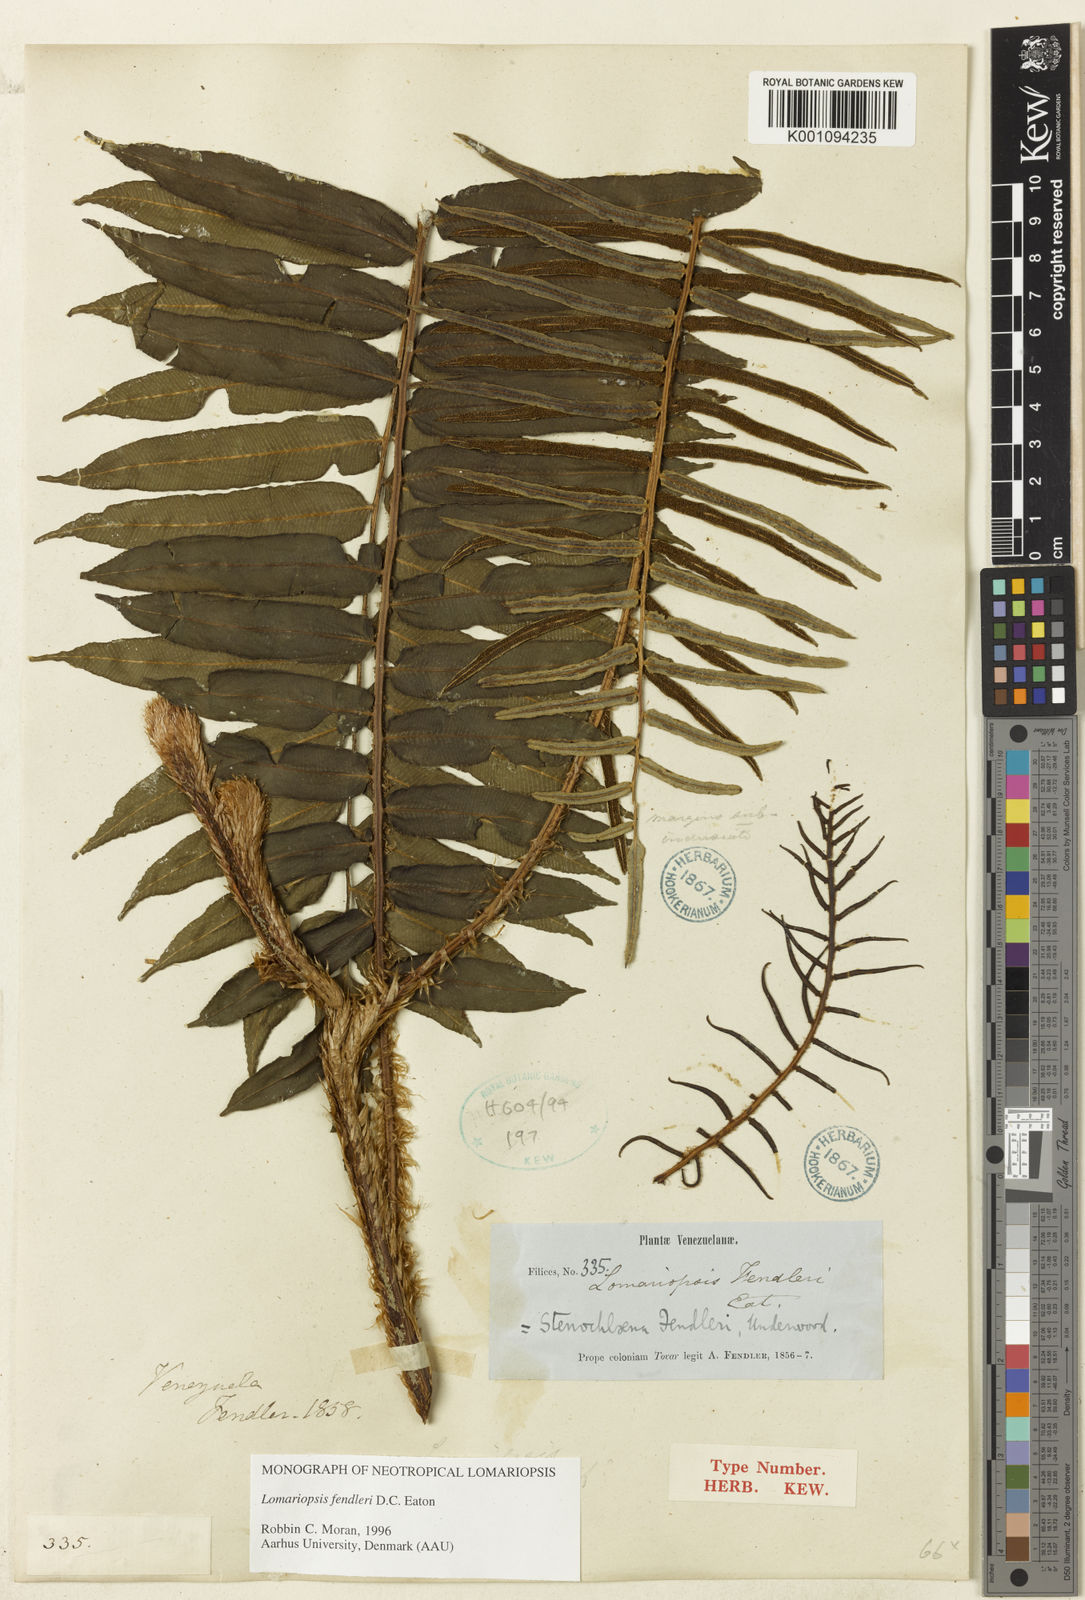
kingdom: Plantae
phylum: Tracheophyta
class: Polypodiopsida
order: Polypodiales
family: Lomariopsidaceae
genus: Lomariopsis
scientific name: Lomariopsis fendleri
